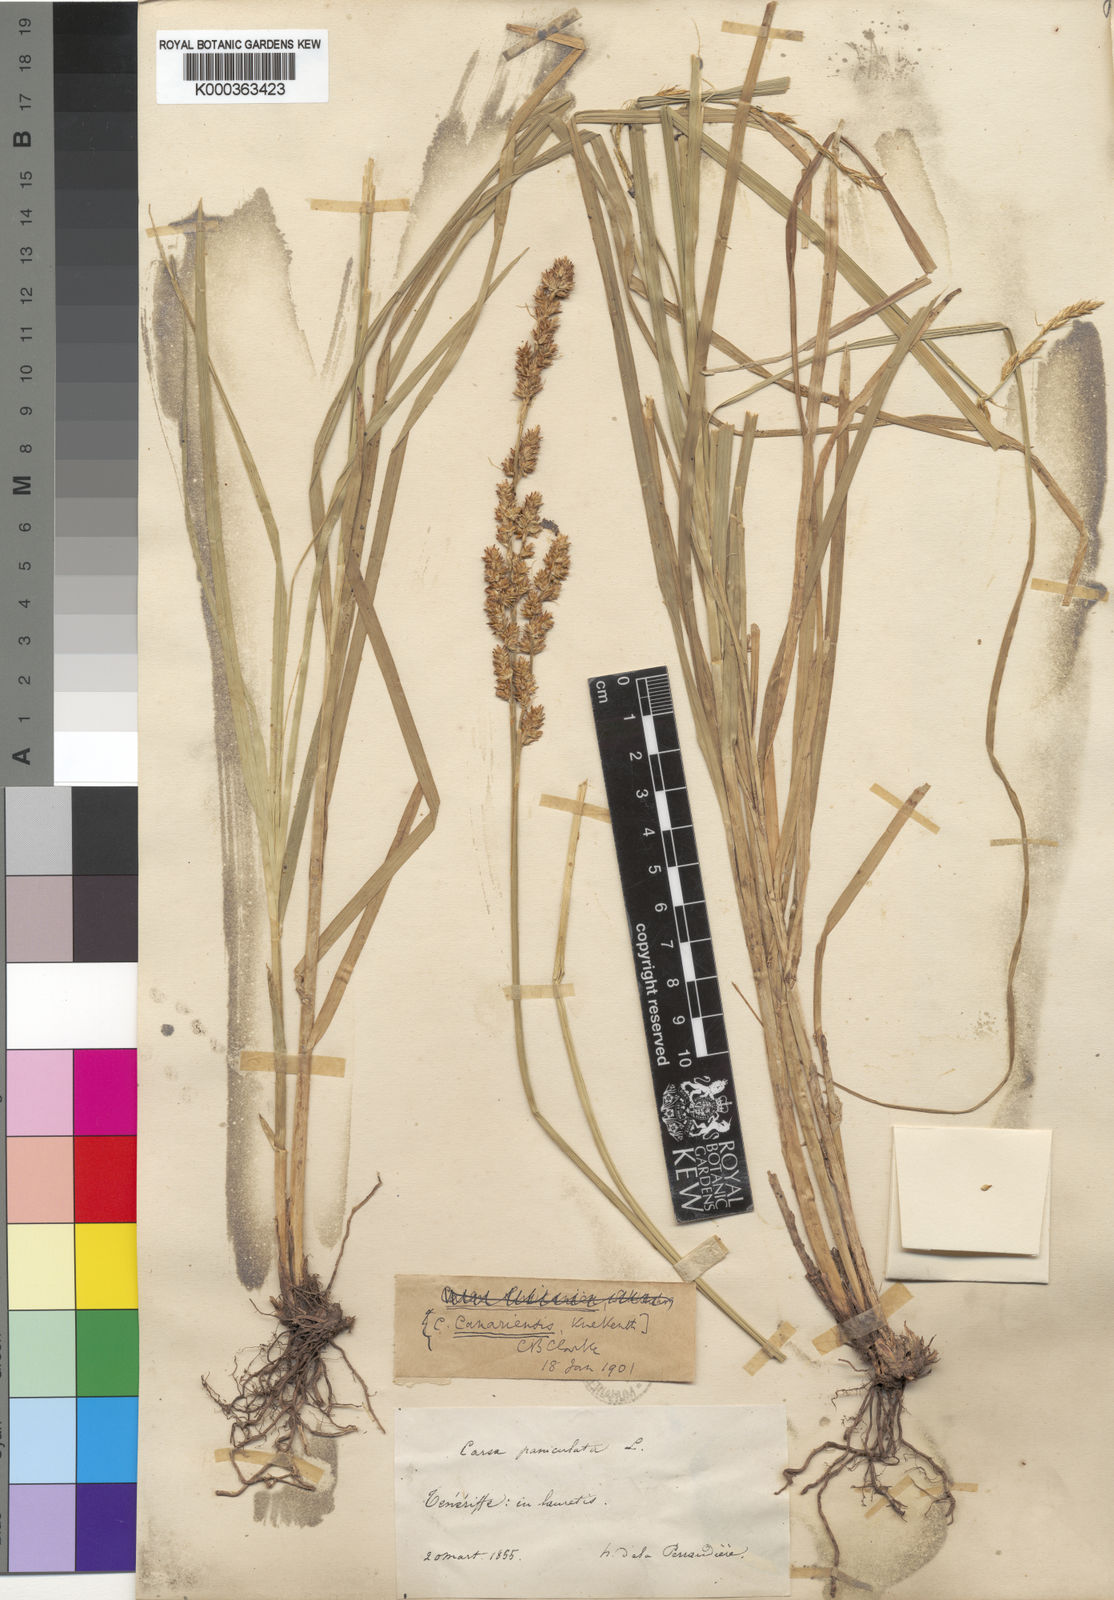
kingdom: Plantae
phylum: Tracheophyta
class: Liliopsida
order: Poales
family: Cyperaceae
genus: Carex
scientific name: Carex
